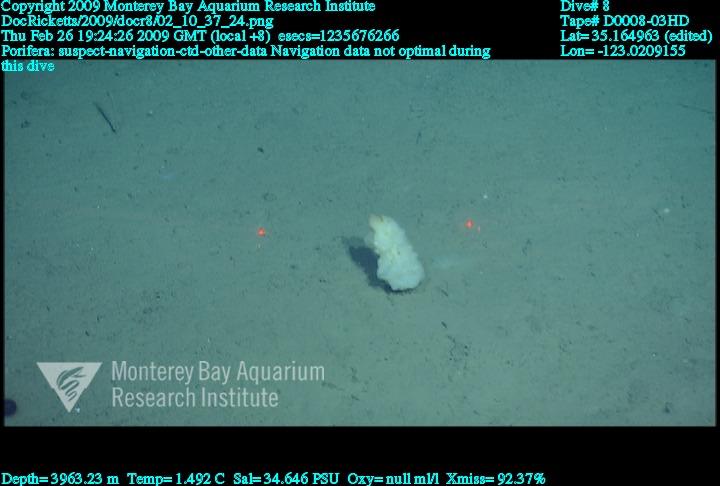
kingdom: Animalia
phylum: Porifera
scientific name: Porifera
